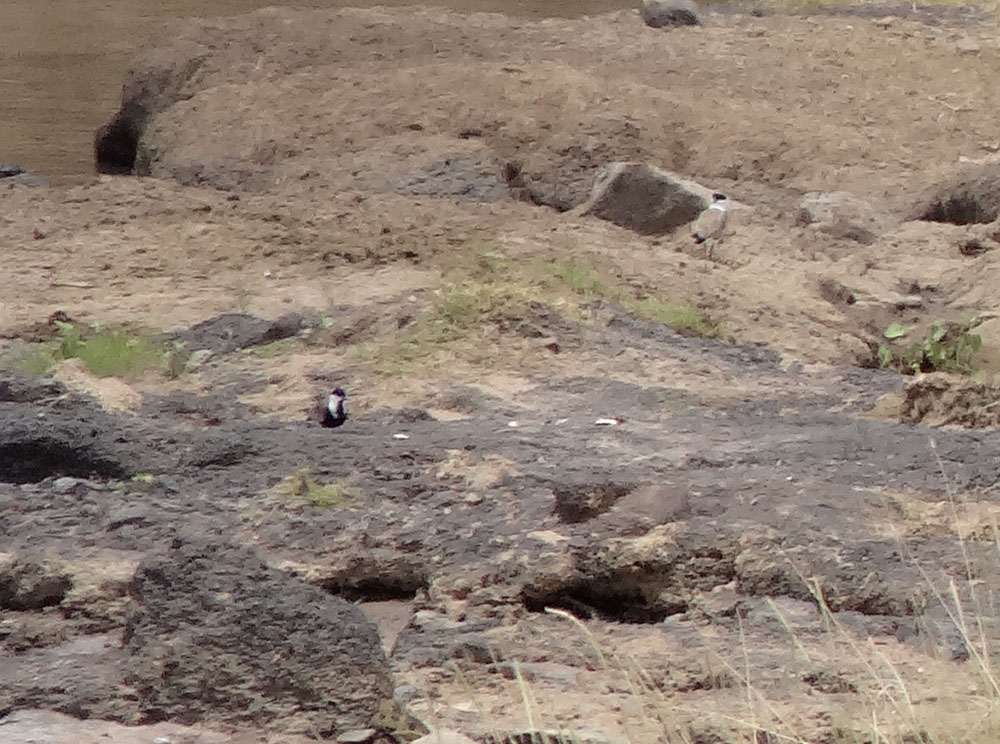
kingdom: Animalia
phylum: Chordata
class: Aves
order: Charadriiformes
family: Charadriidae
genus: Vanellus
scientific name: Vanellus spinosus
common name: Spur-winged lapwing
